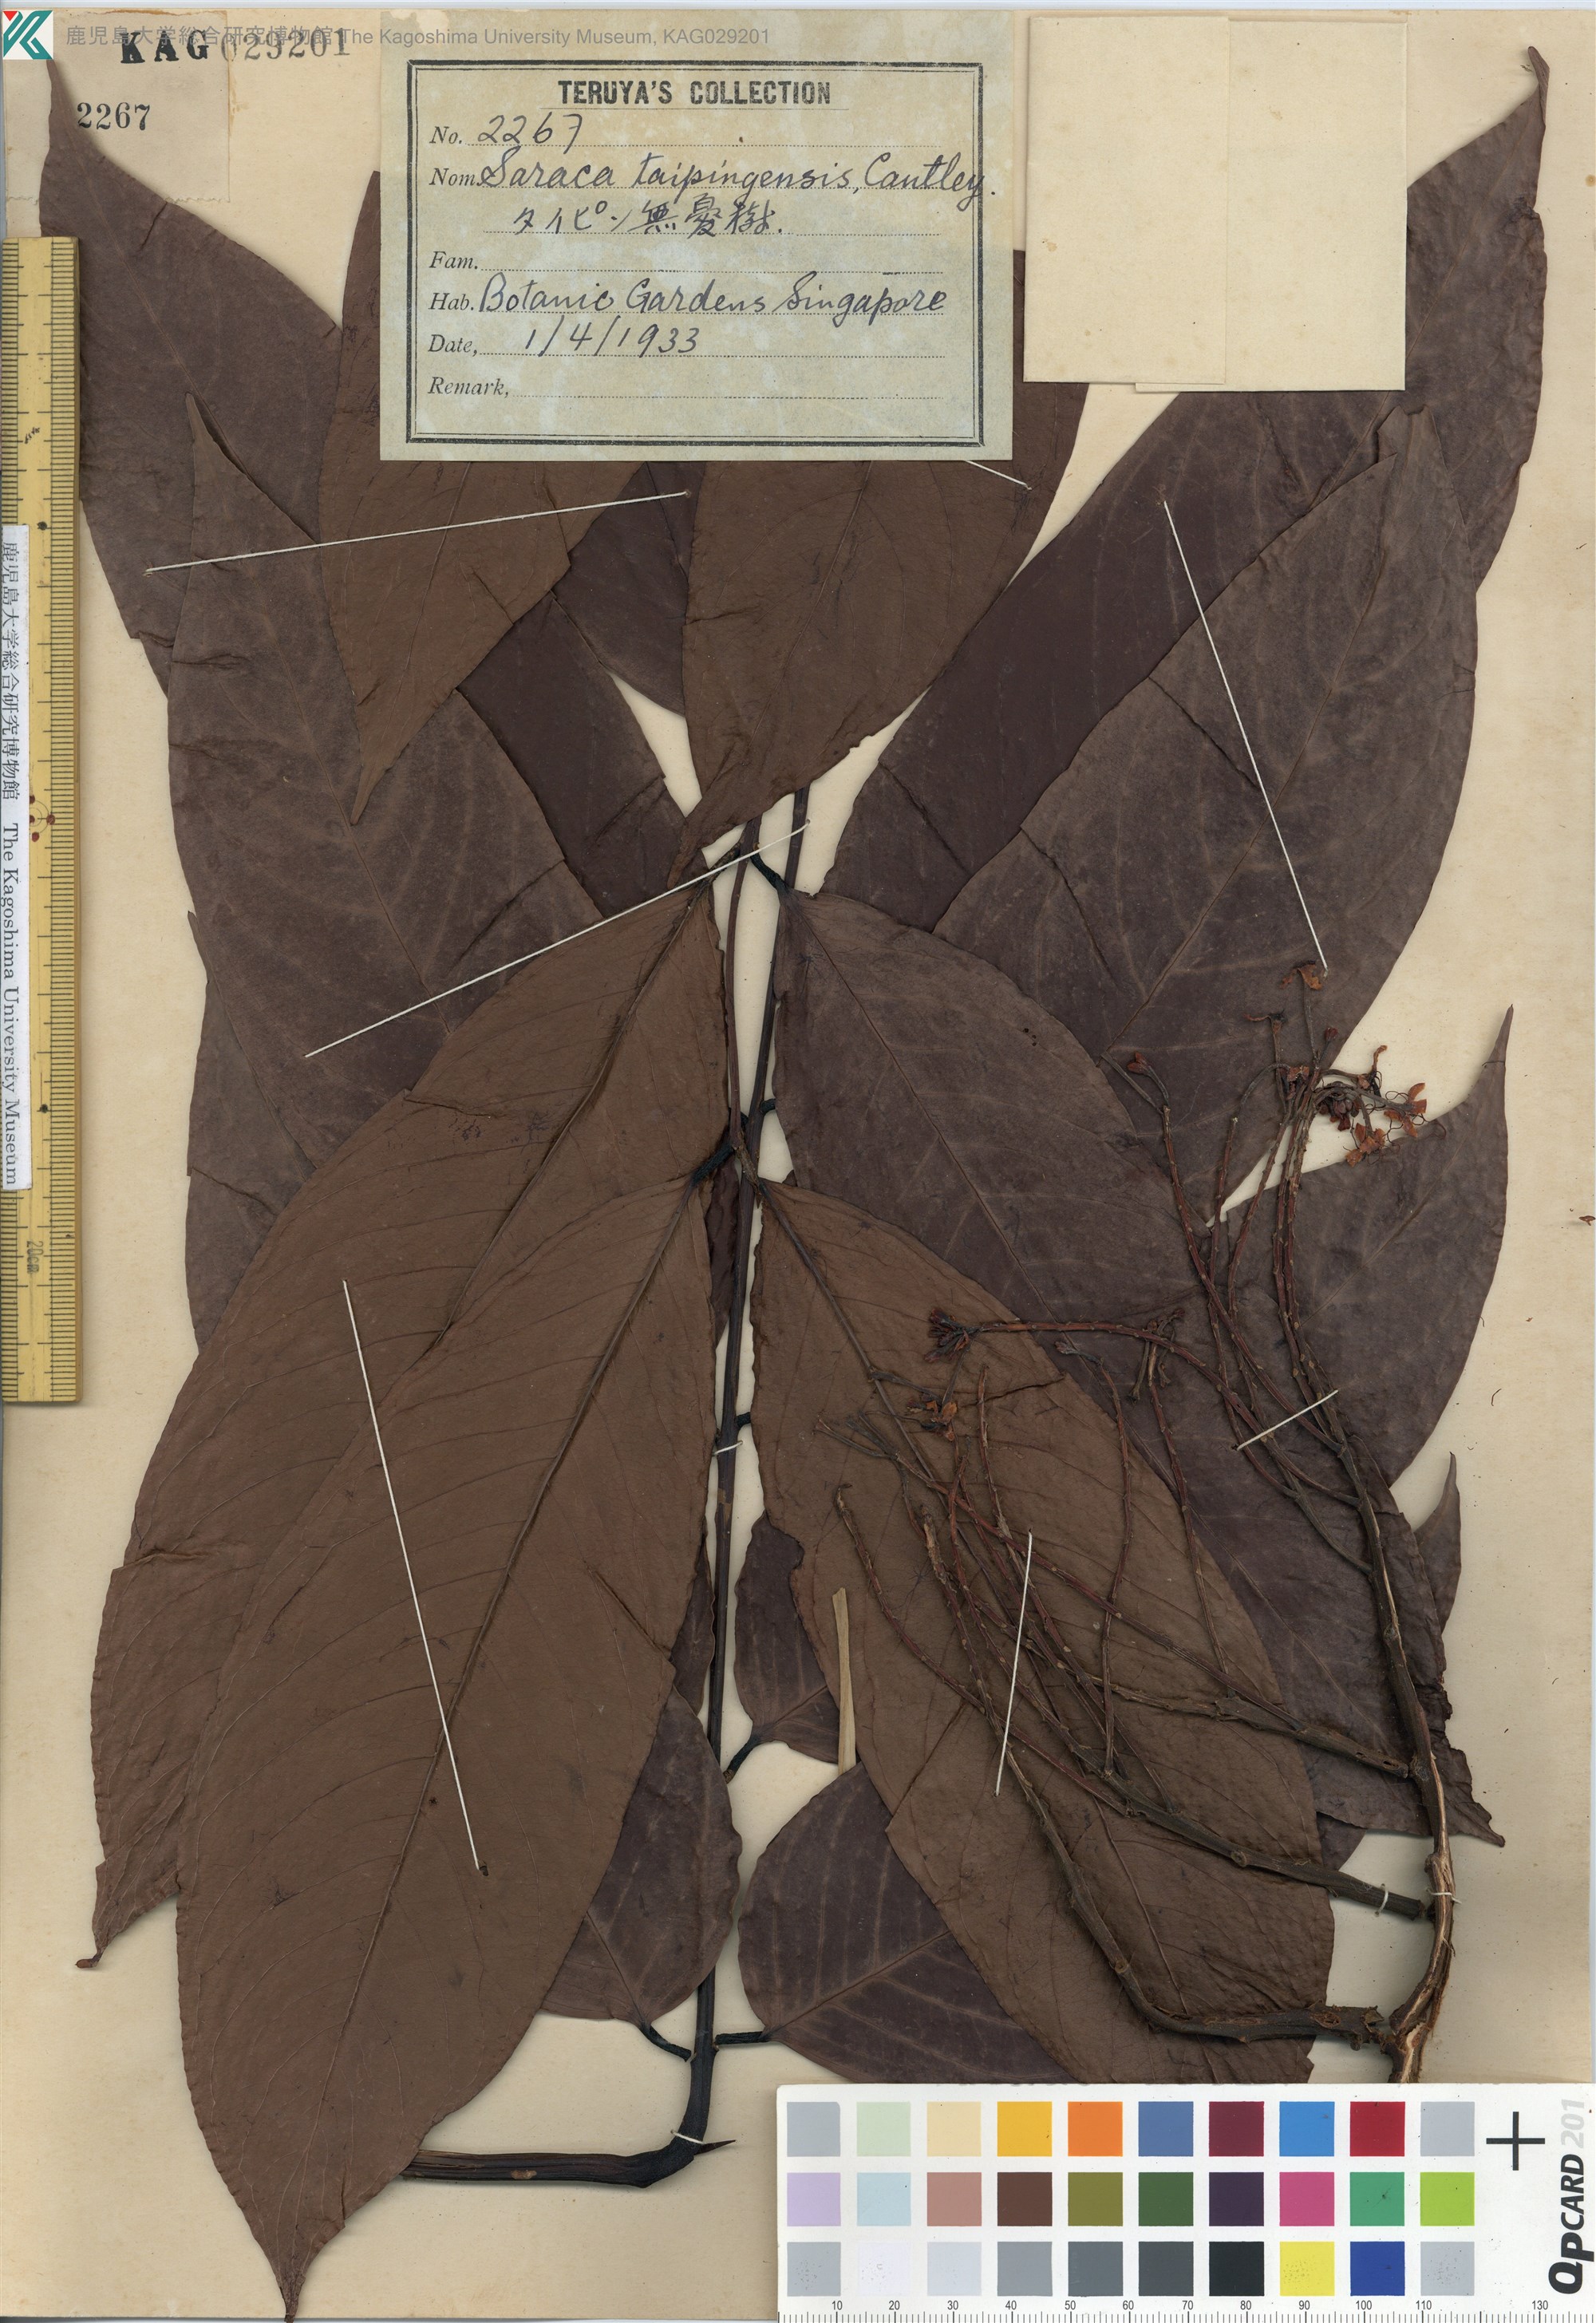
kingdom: Plantae
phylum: Tracheophyta
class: Magnoliopsida
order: Fabales
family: Fabaceae
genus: Saraca
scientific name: Saraca thaipingensis
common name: Yellow saraca
